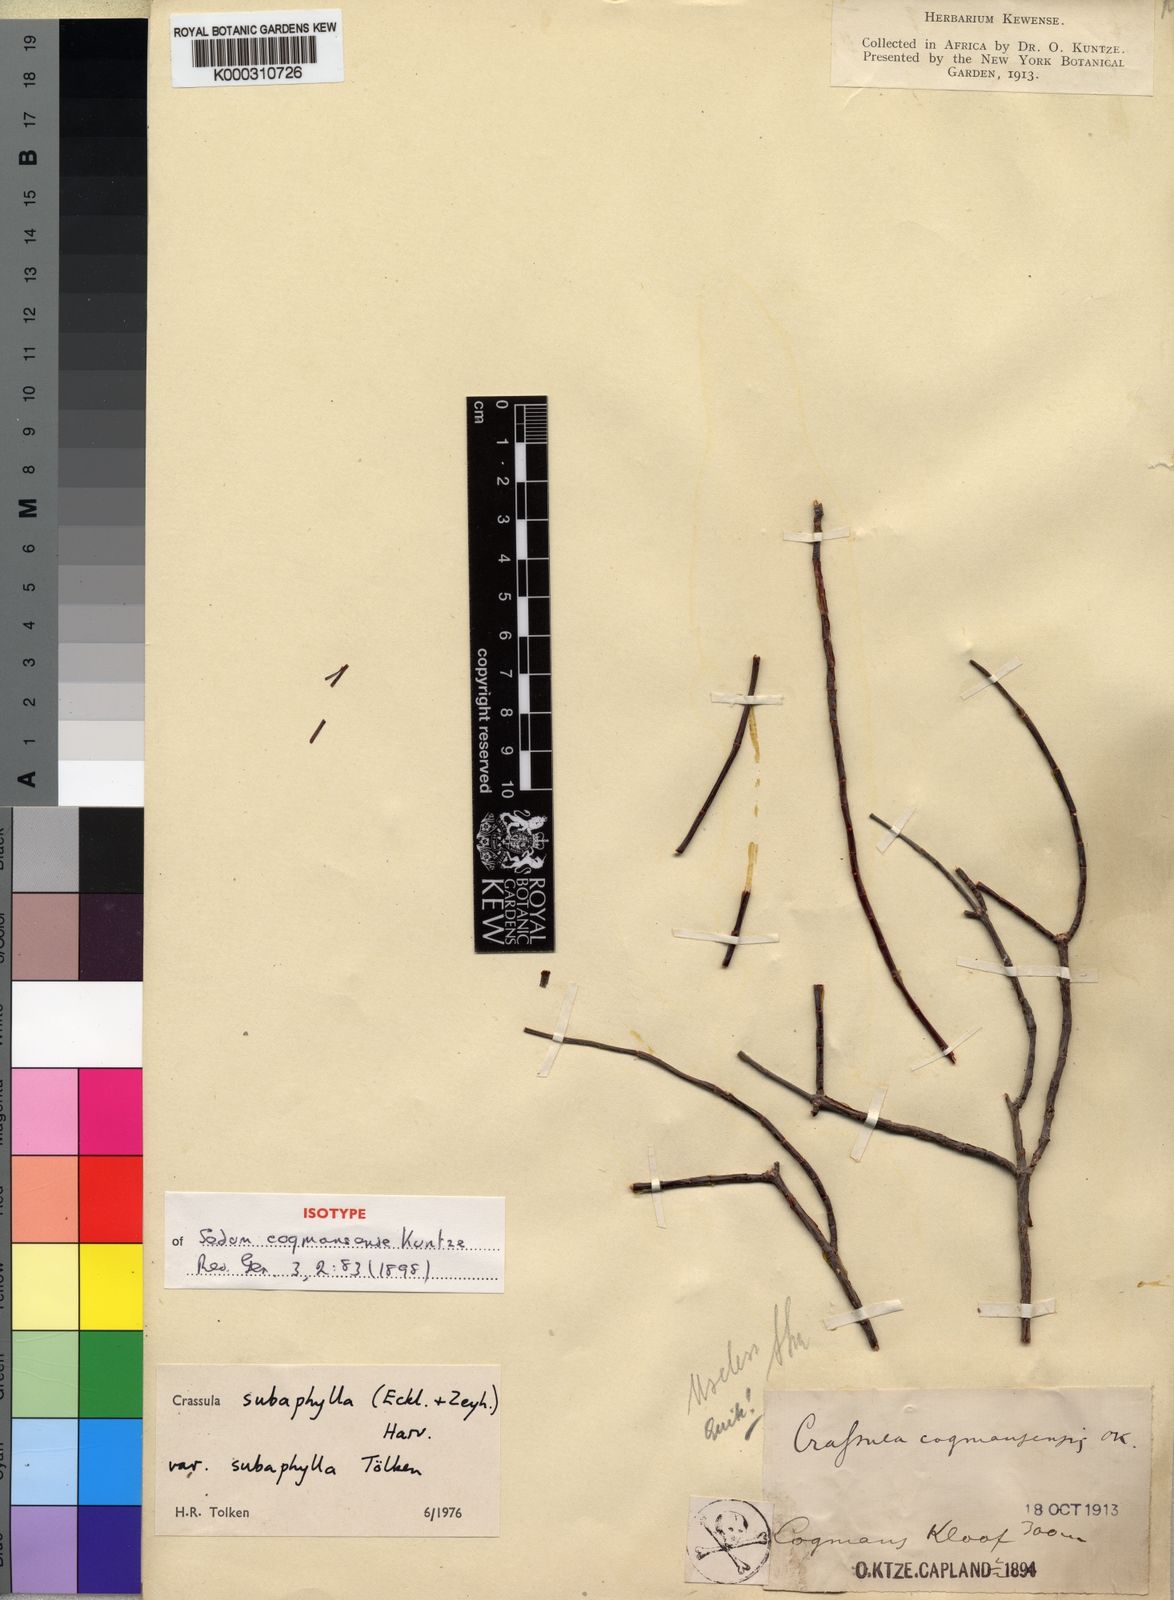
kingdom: Plantae
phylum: Tracheophyta
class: Magnoliopsida
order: Saxifragales
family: Crassulaceae
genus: Crassula
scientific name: Crassula subaphylla
